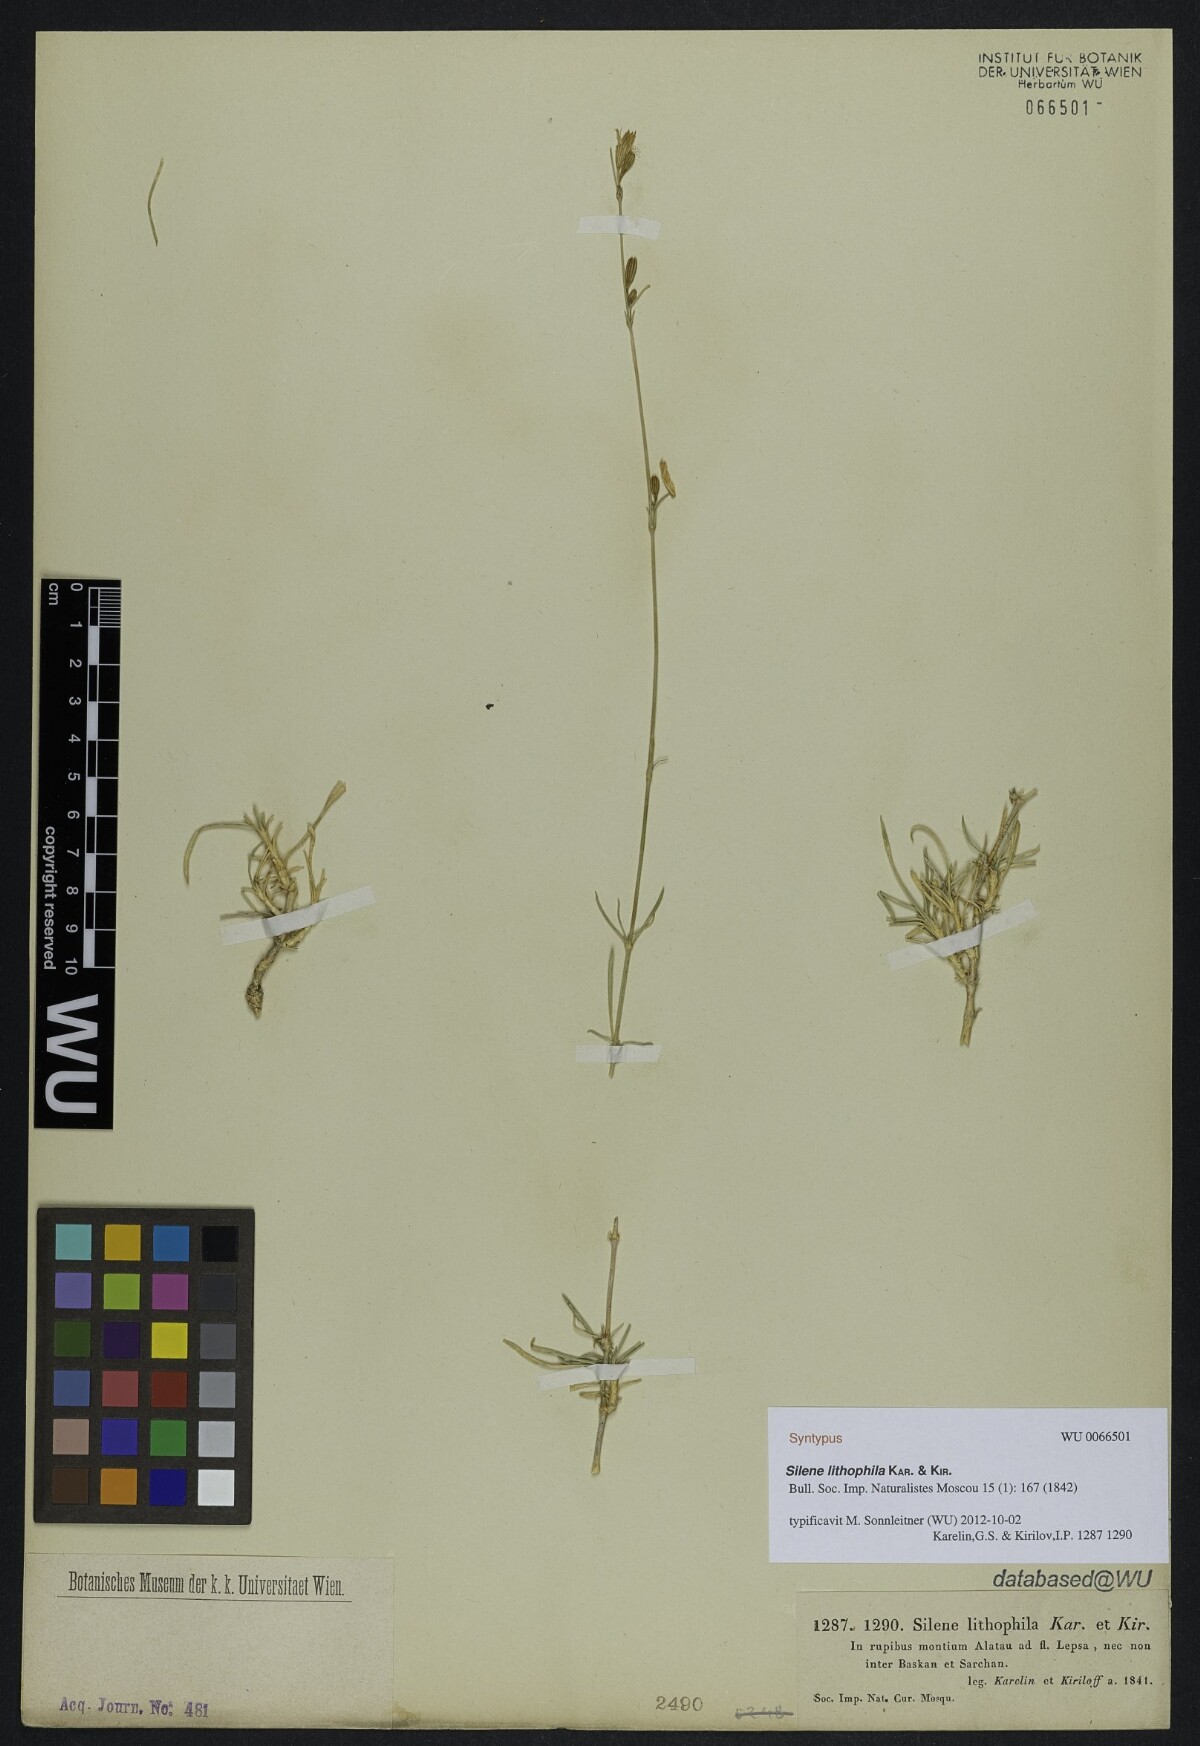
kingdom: Plantae
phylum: Tracheophyta
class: Magnoliopsida
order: Caryophyllales
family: Caryophyllaceae
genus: Silene
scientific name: Silene lithophila
